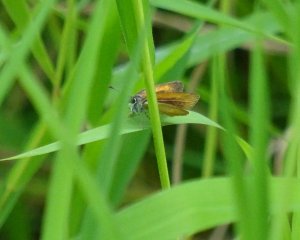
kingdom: Animalia
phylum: Arthropoda
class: Insecta
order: Lepidoptera
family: Hesperiidae
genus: Ancyloxypha
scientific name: Ancyloxypha numitor
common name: Least Skipper
